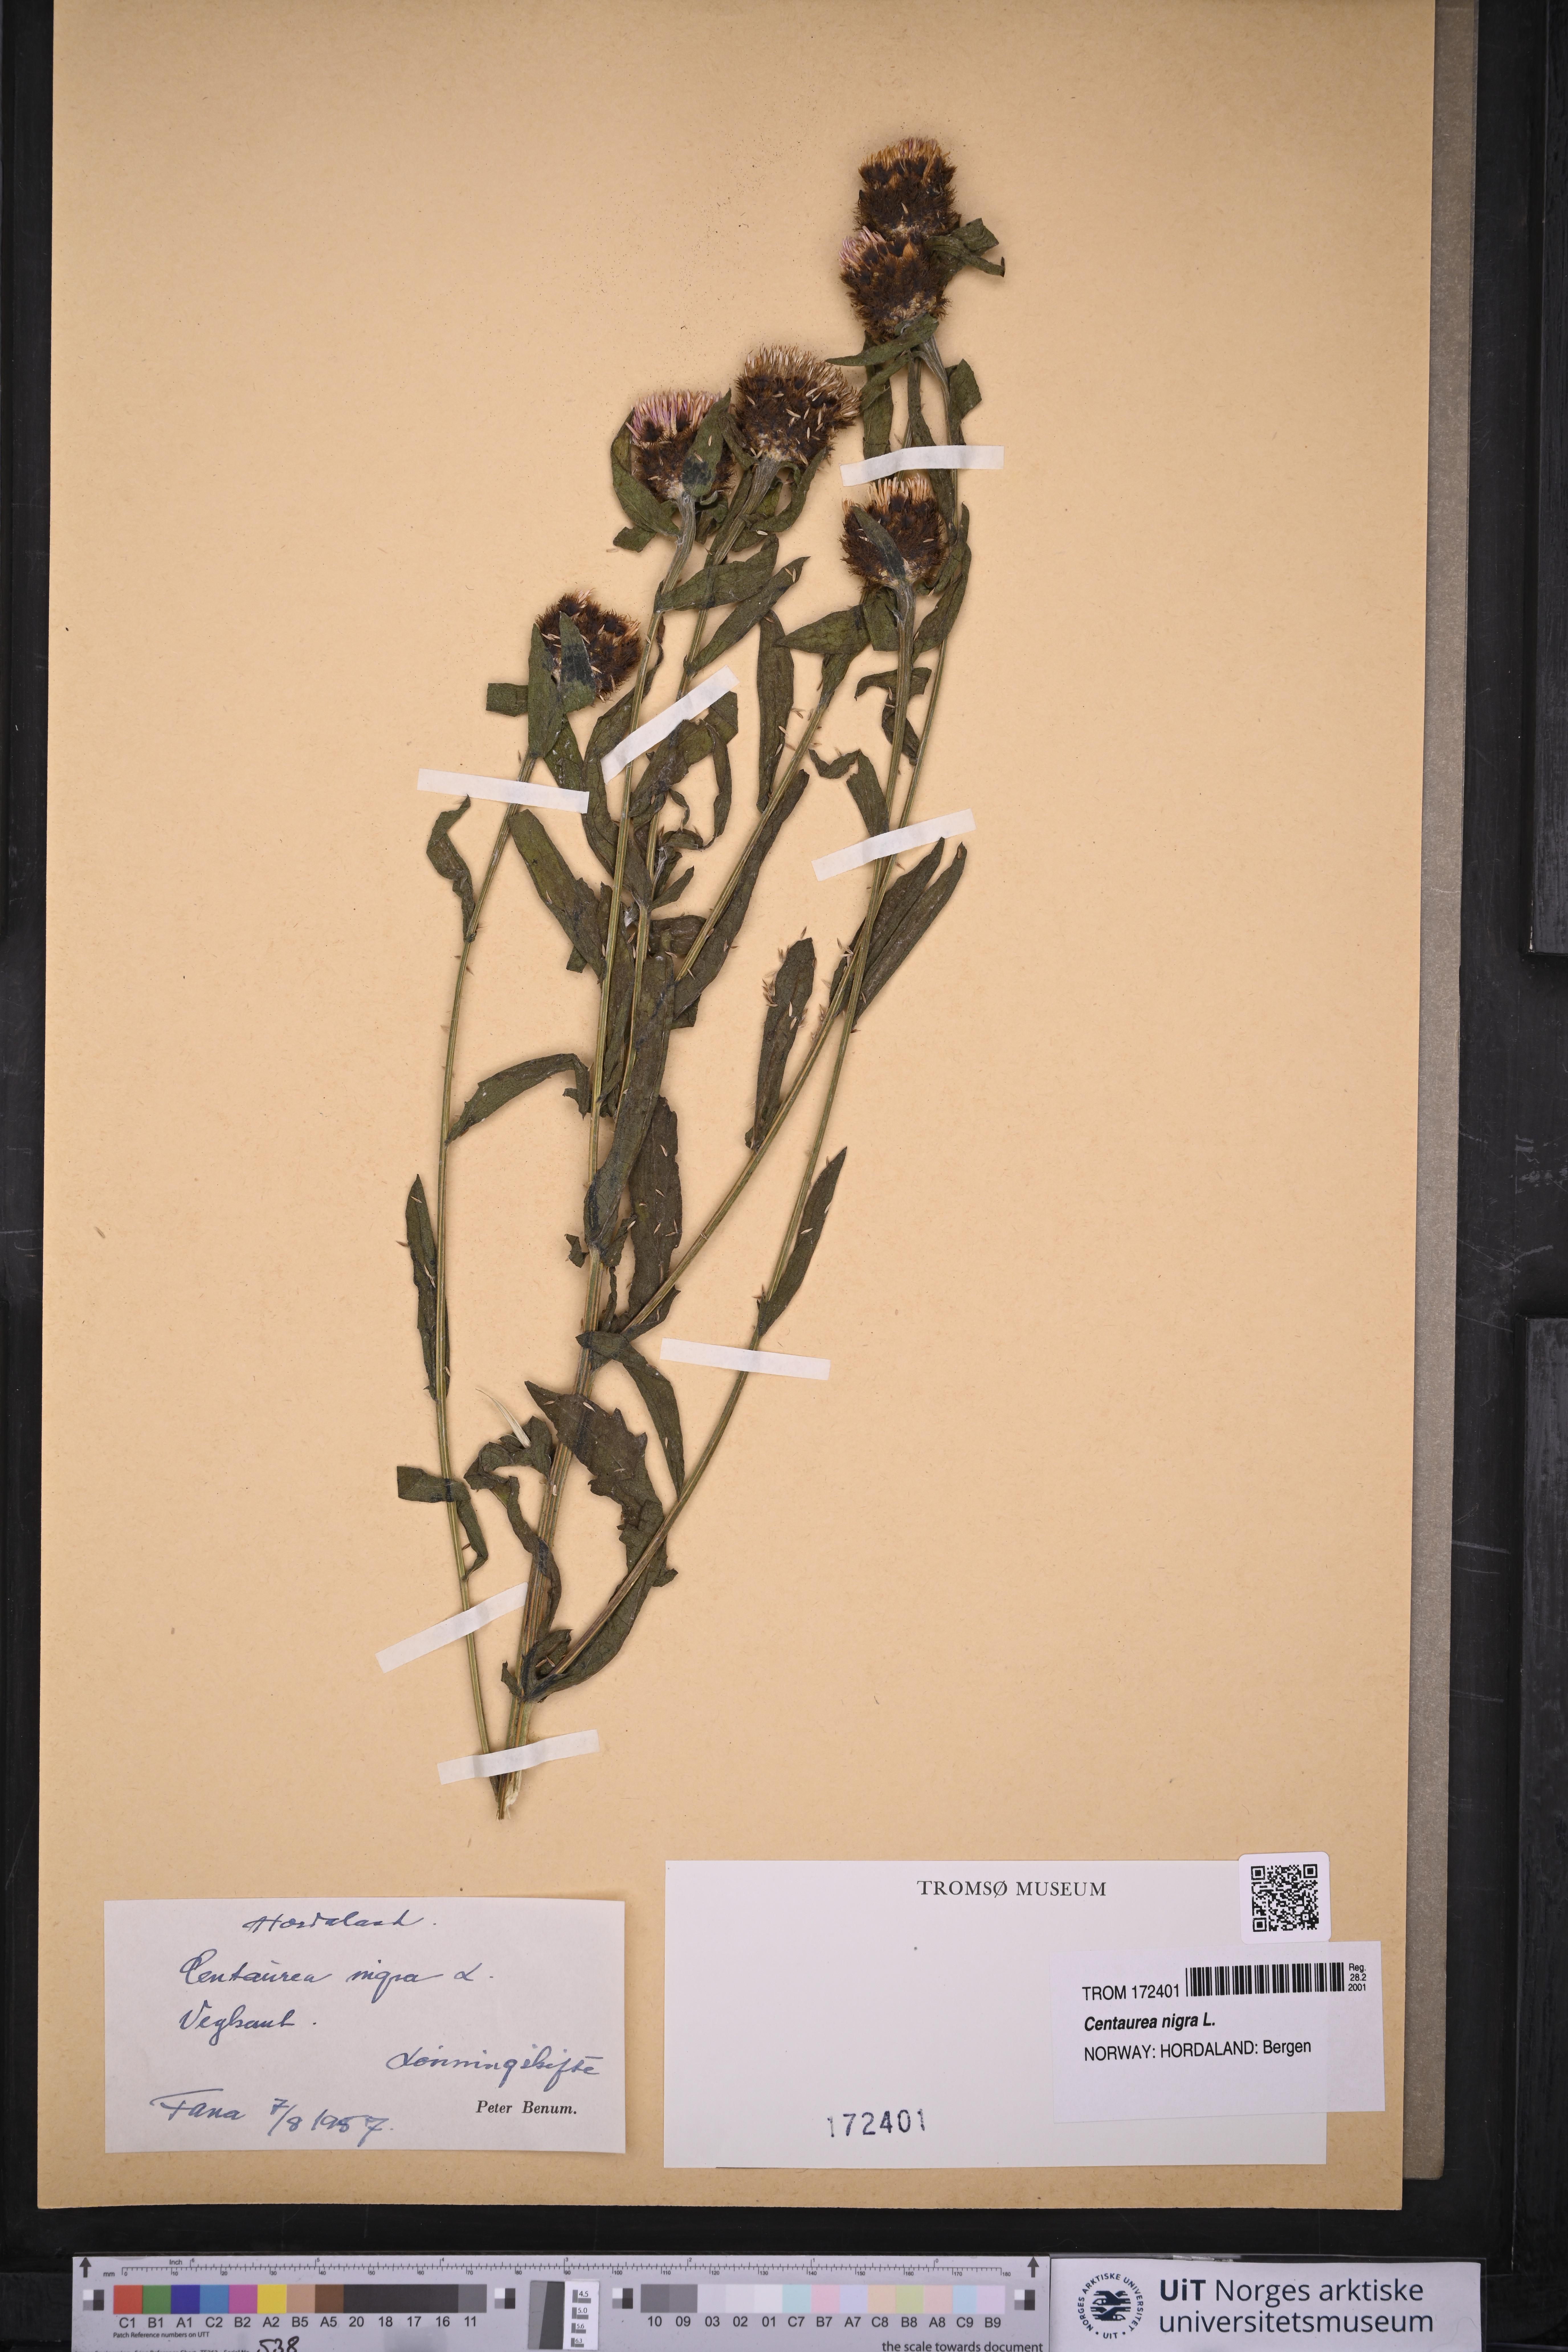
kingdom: Plantae
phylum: Tracheophyta
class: Magnoliopsida
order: Asterales
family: Asteraceae
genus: Centaurea
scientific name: Centaurea nigra
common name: Lesser knapweed
